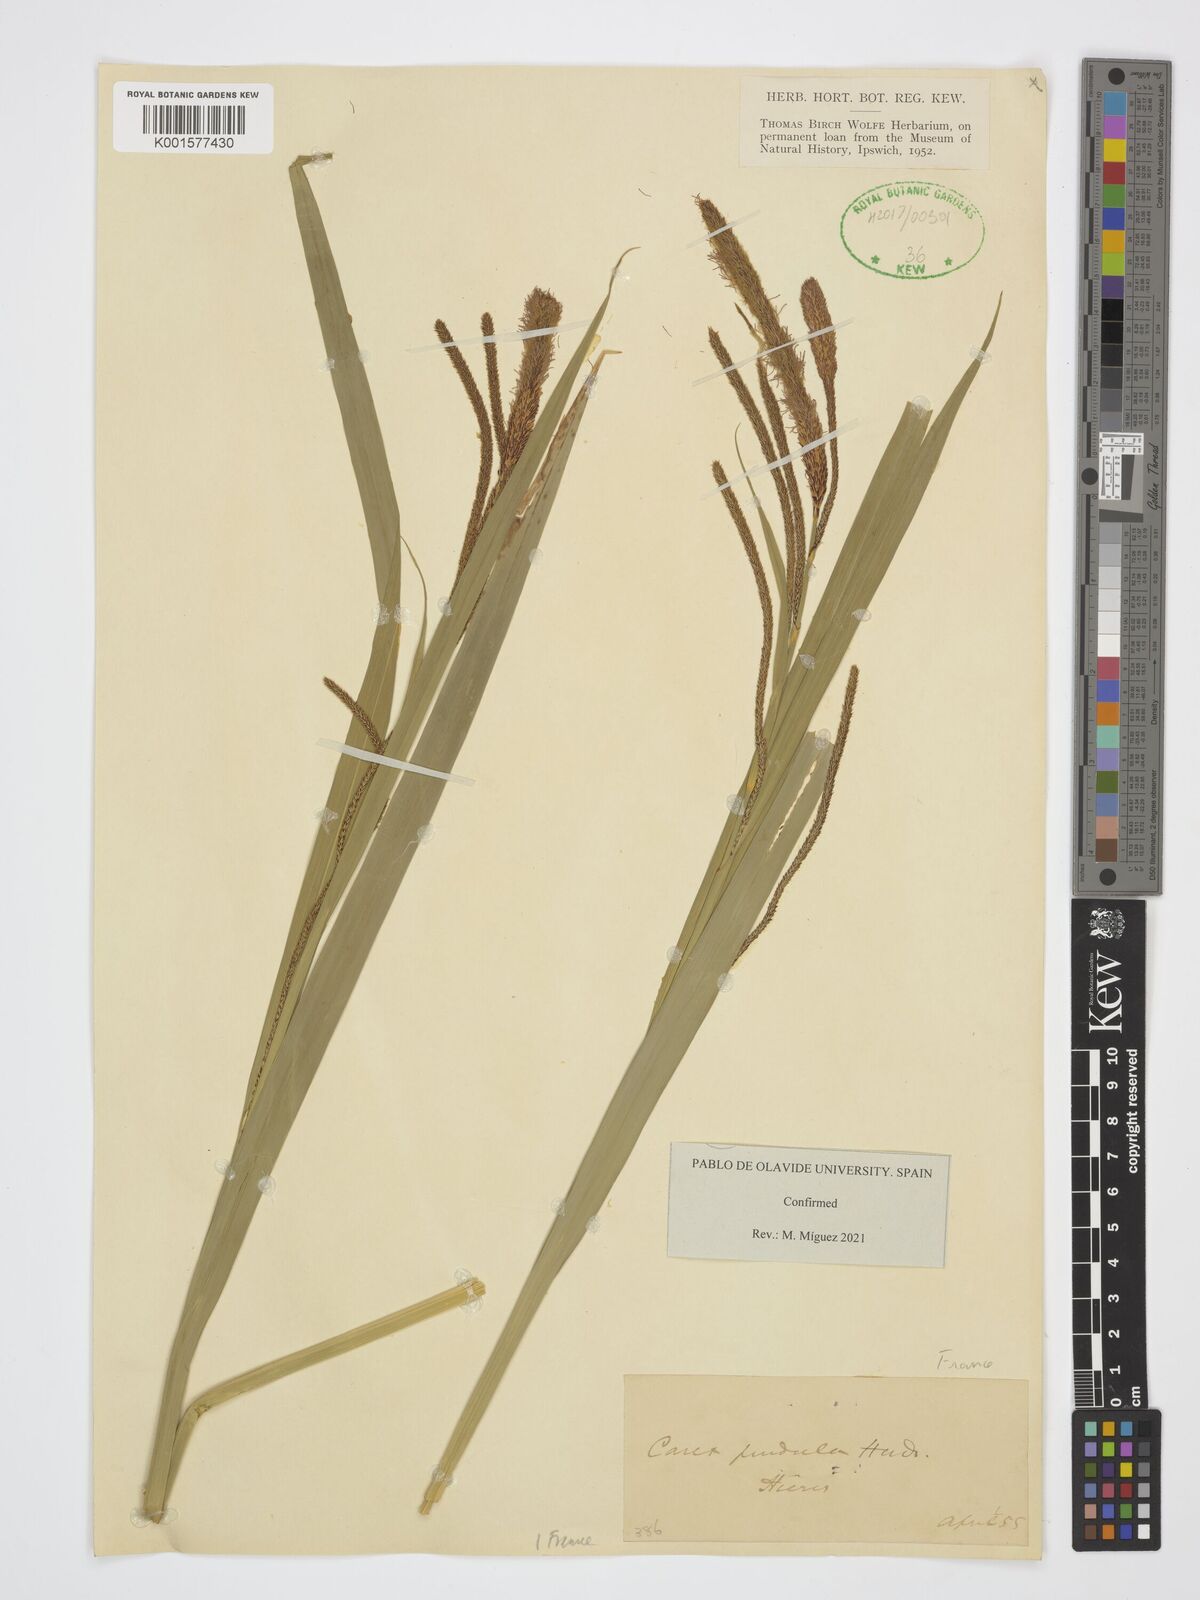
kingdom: Plantae
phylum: Tracheophyta
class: Liliopsida
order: Poales
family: Cyperaceae
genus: Carex
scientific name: Carex pendula
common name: Pendulous sedge
